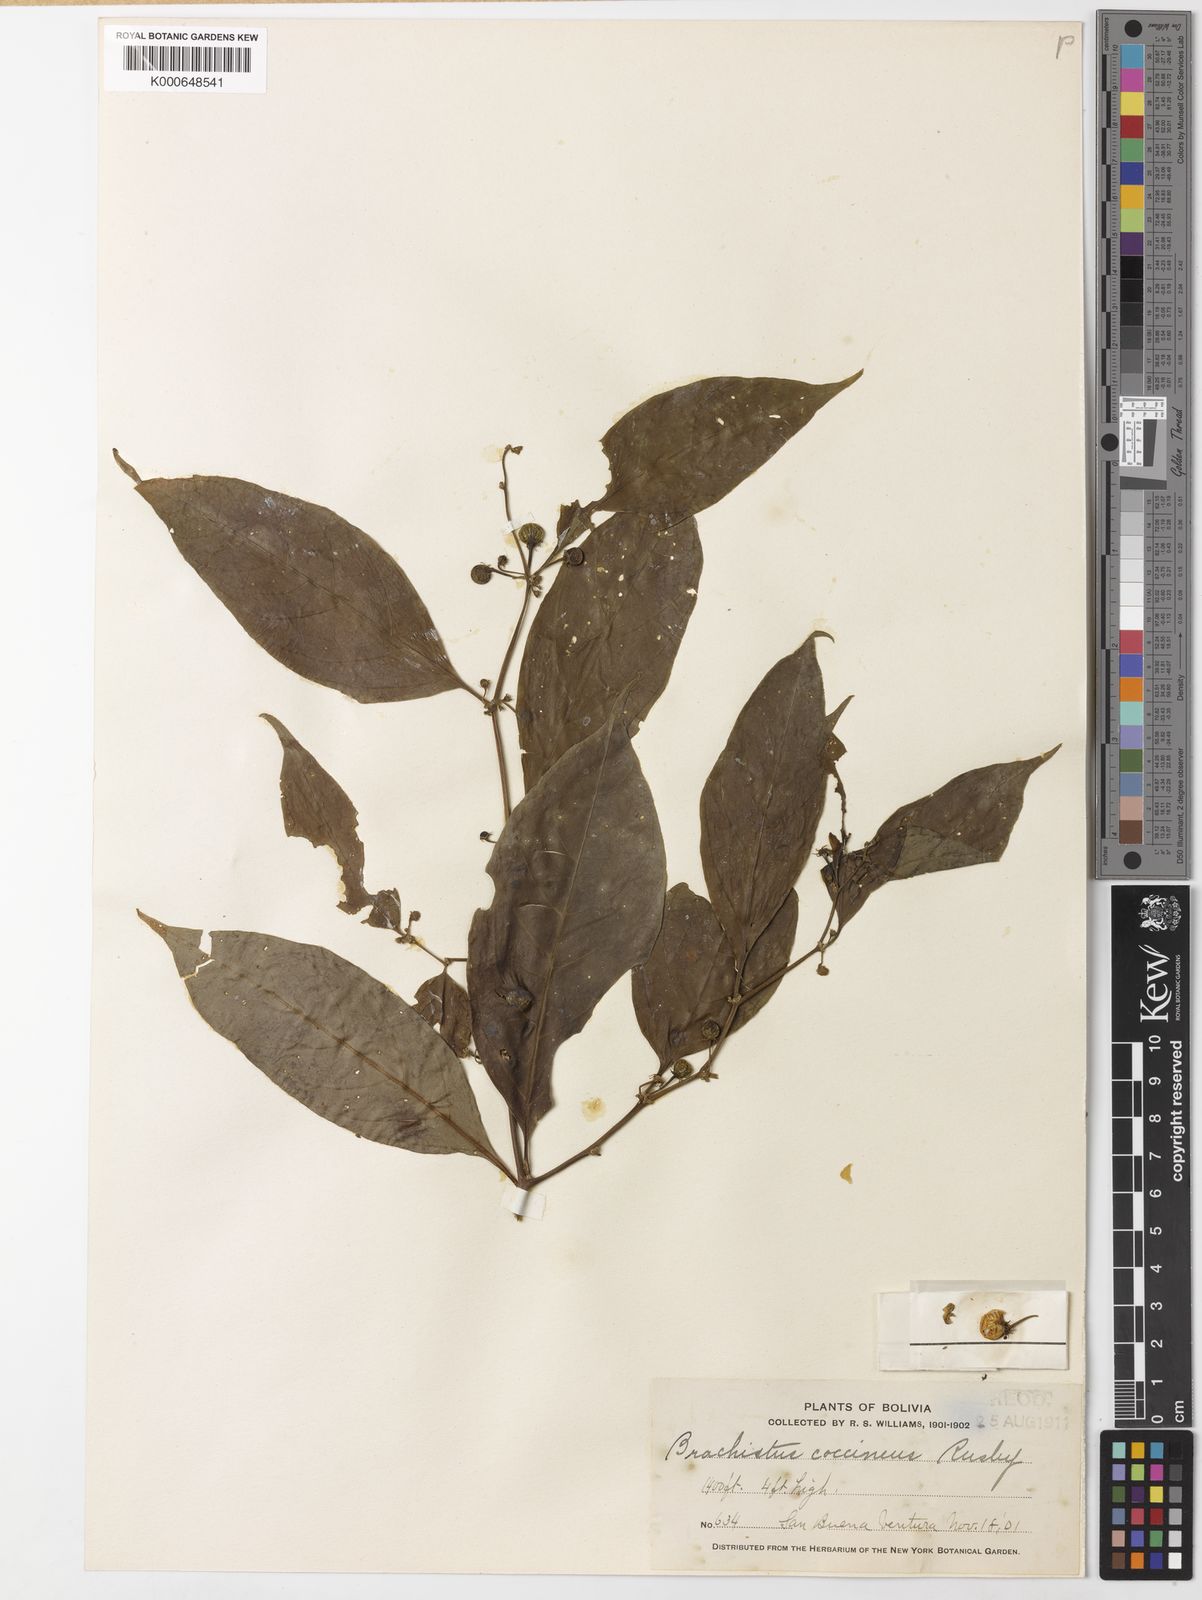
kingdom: Plantae
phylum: Tracheophyta
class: Magnoliopsida
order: Solanales
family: Solanaceae
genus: Capsicum
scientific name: Capsicum coccineum
